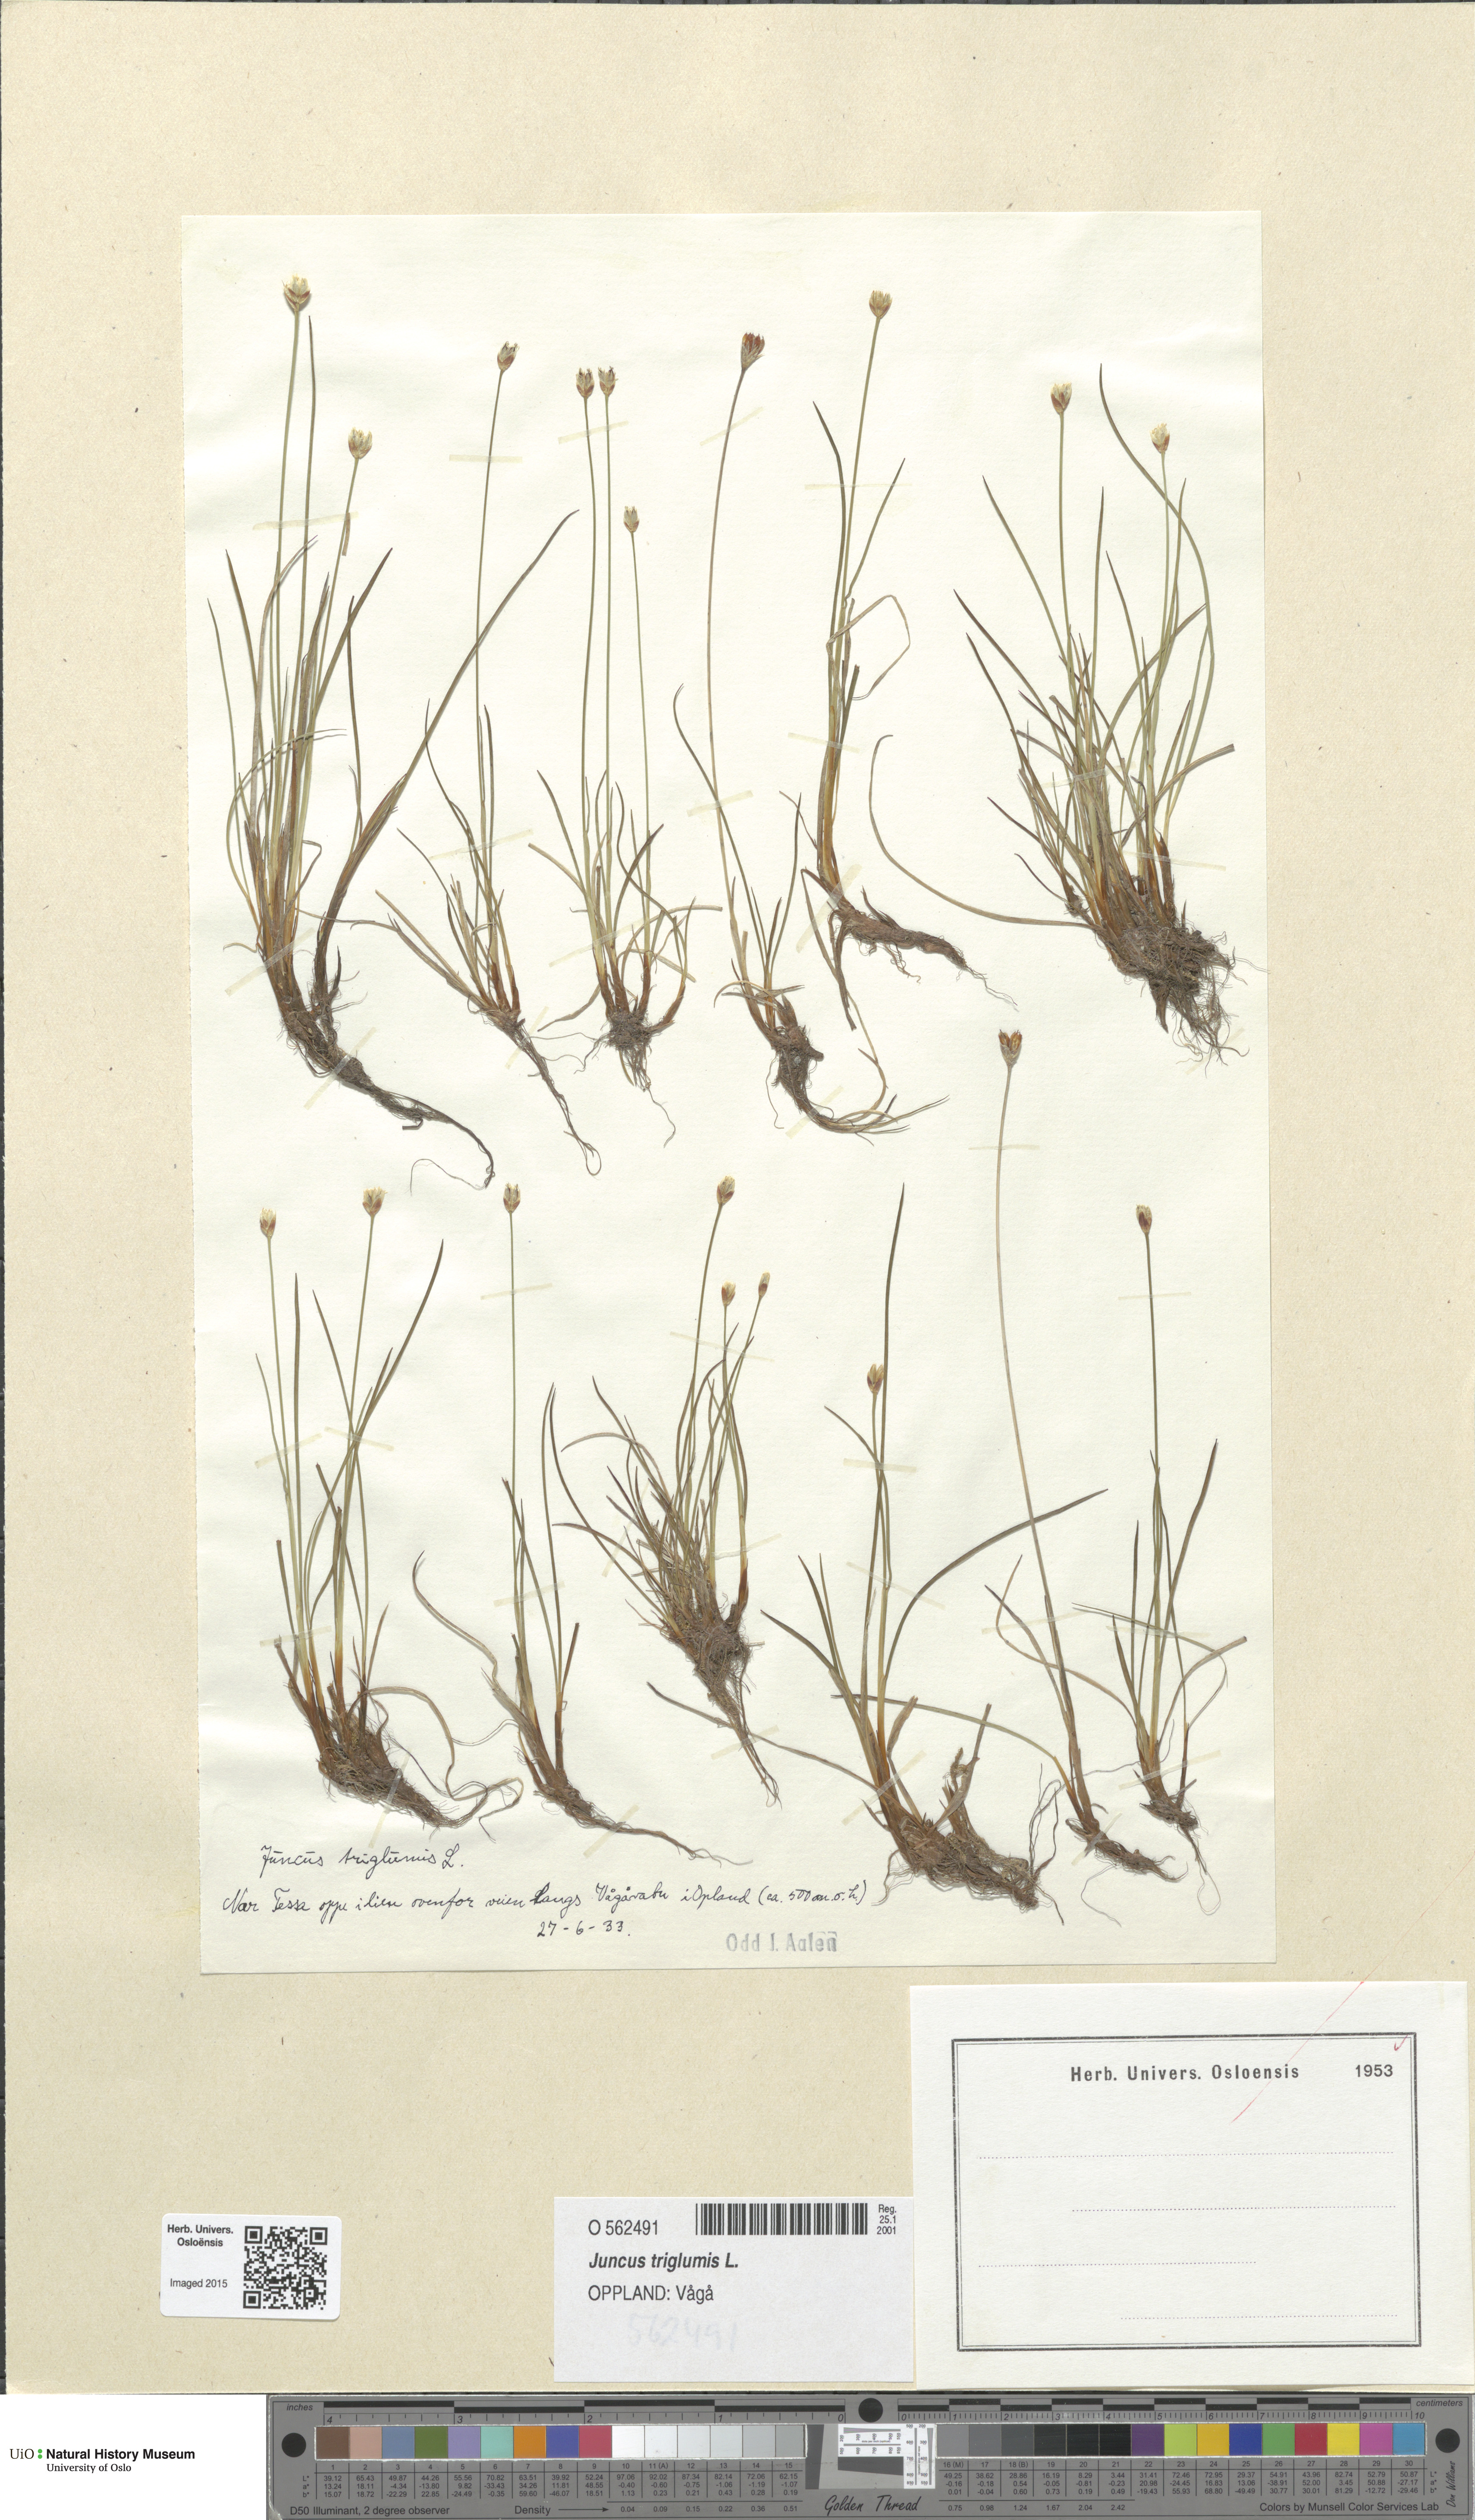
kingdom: Plantae
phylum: Tracheophyta
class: Liliopsida
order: Poales
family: Juncaceae
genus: Juncus
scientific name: Juncus triglumis
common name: Three-flowered rush
